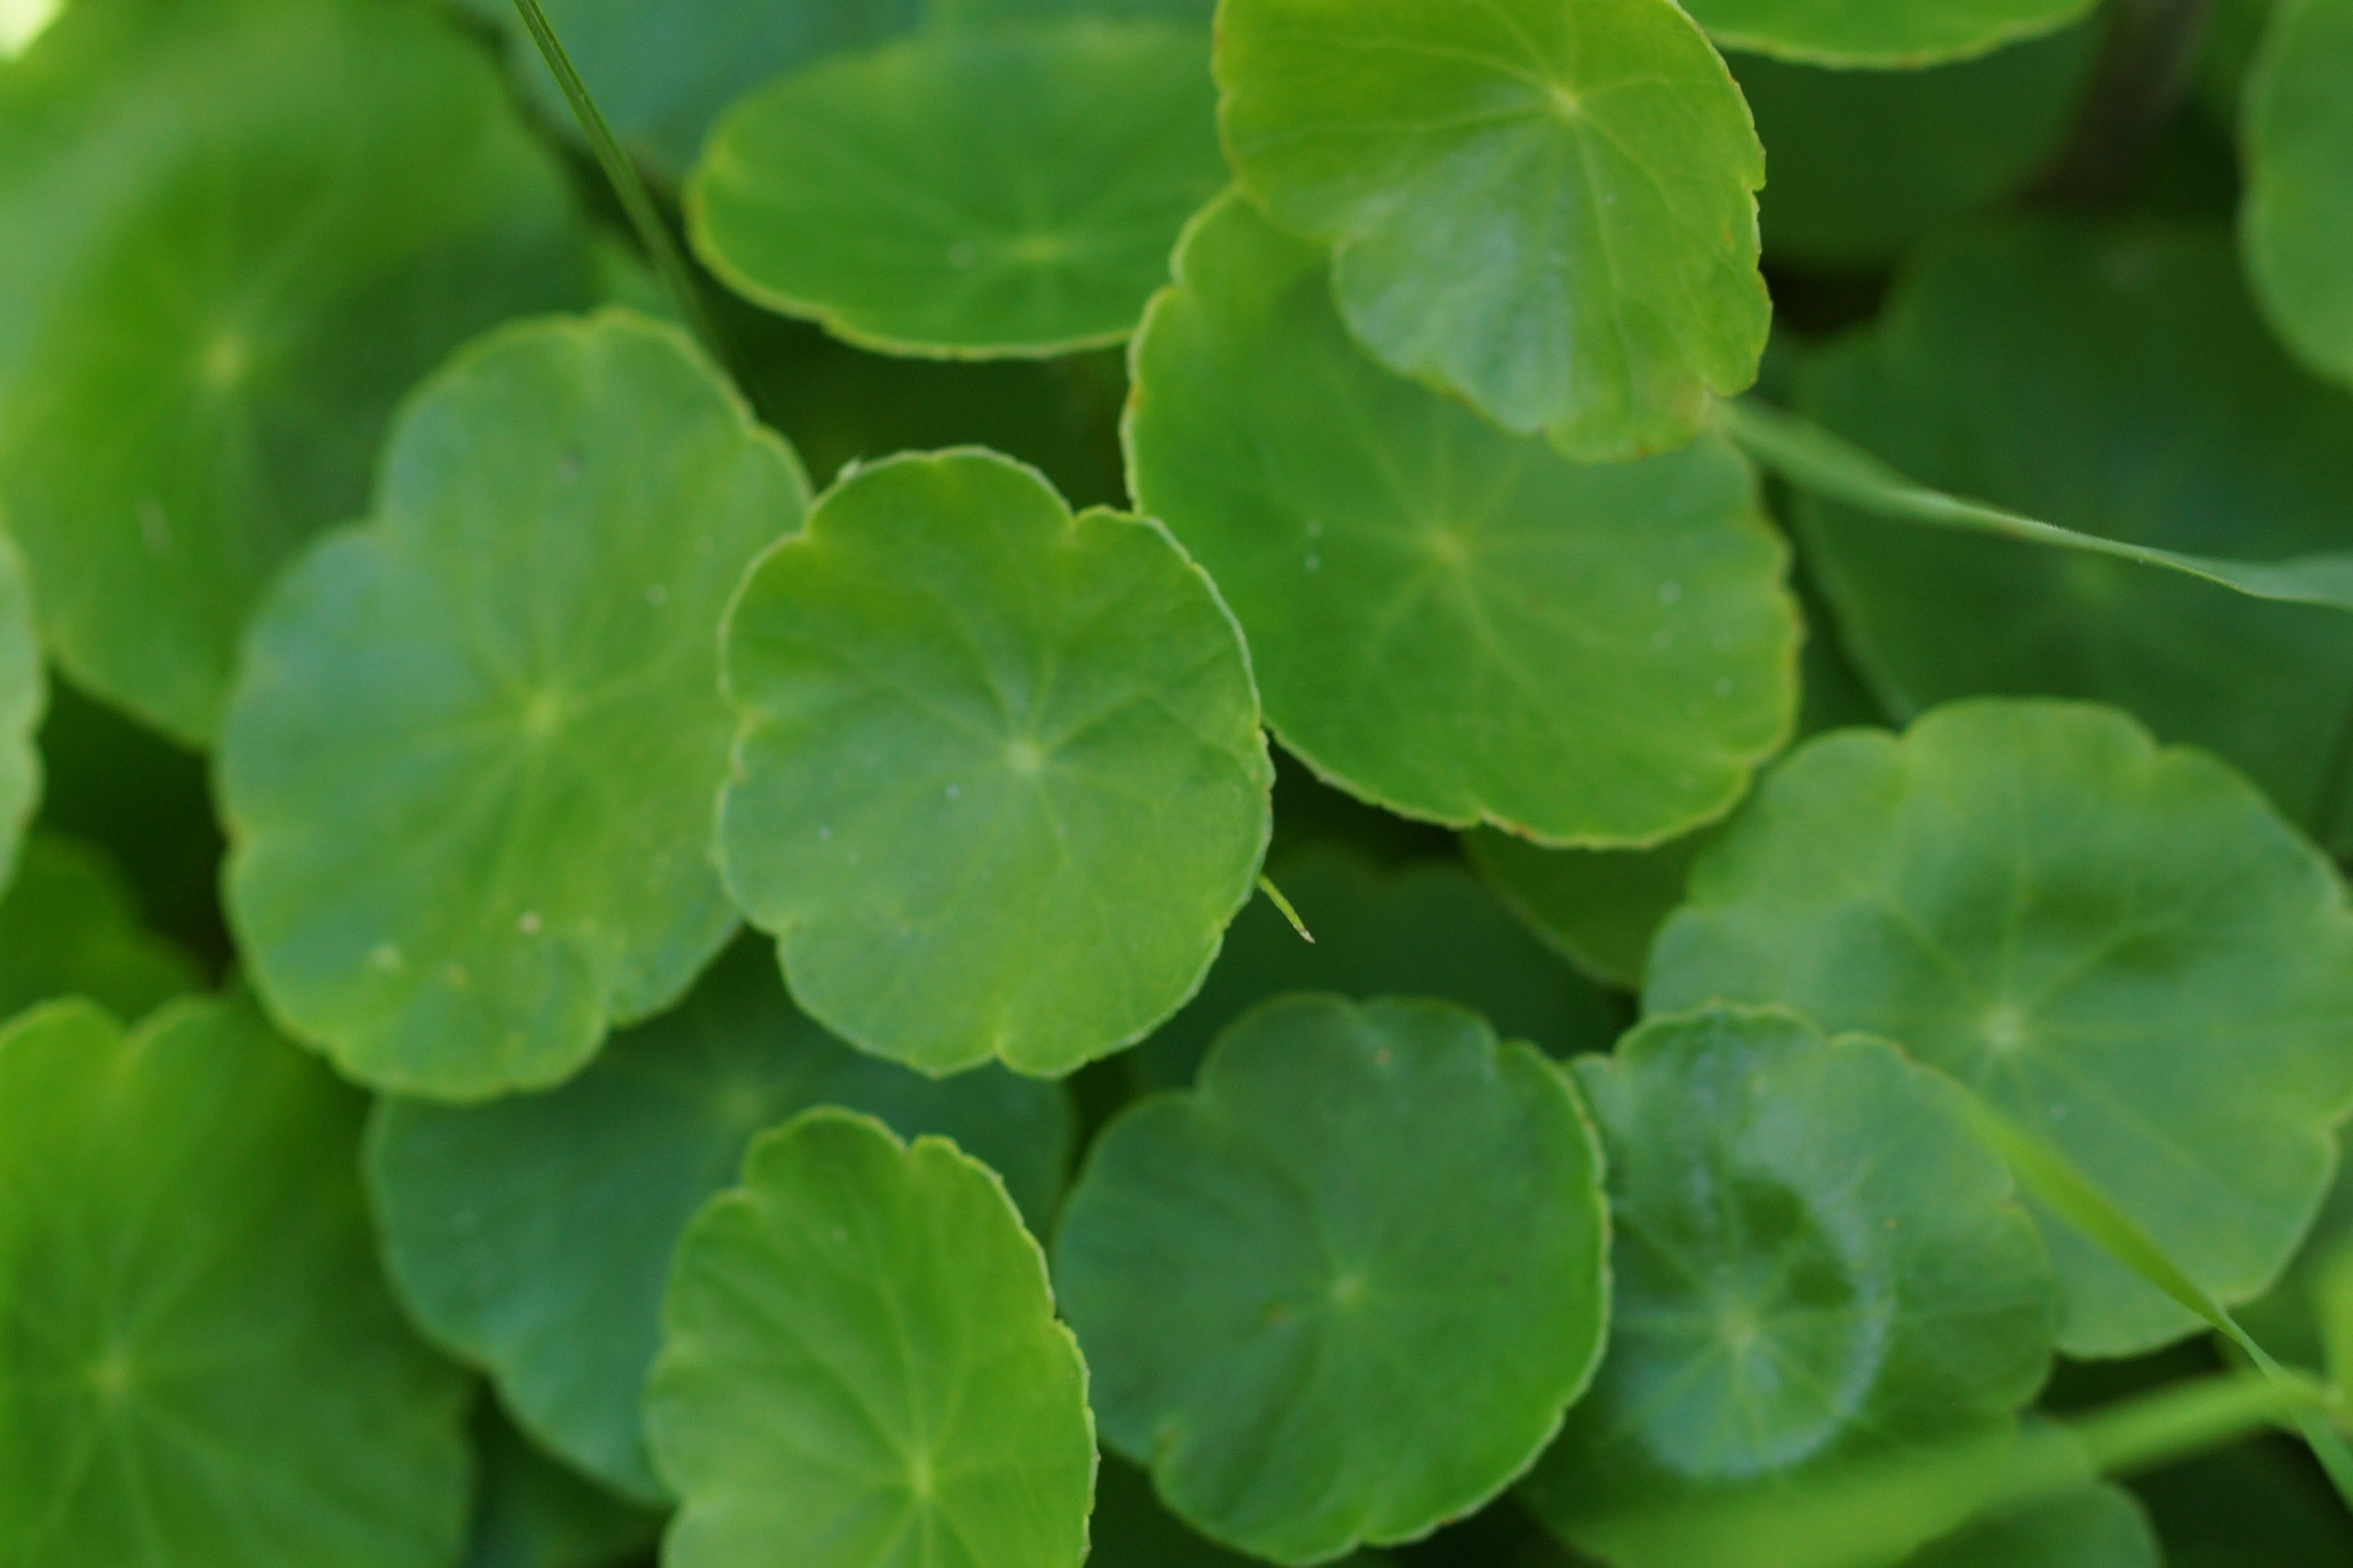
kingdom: Plantae
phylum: Tracheophyta
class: Magnoliopsida
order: Apiales
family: Araliaceae
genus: Hydrocotyle
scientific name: Hydrocotyle vulgaris
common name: Vandnavle
